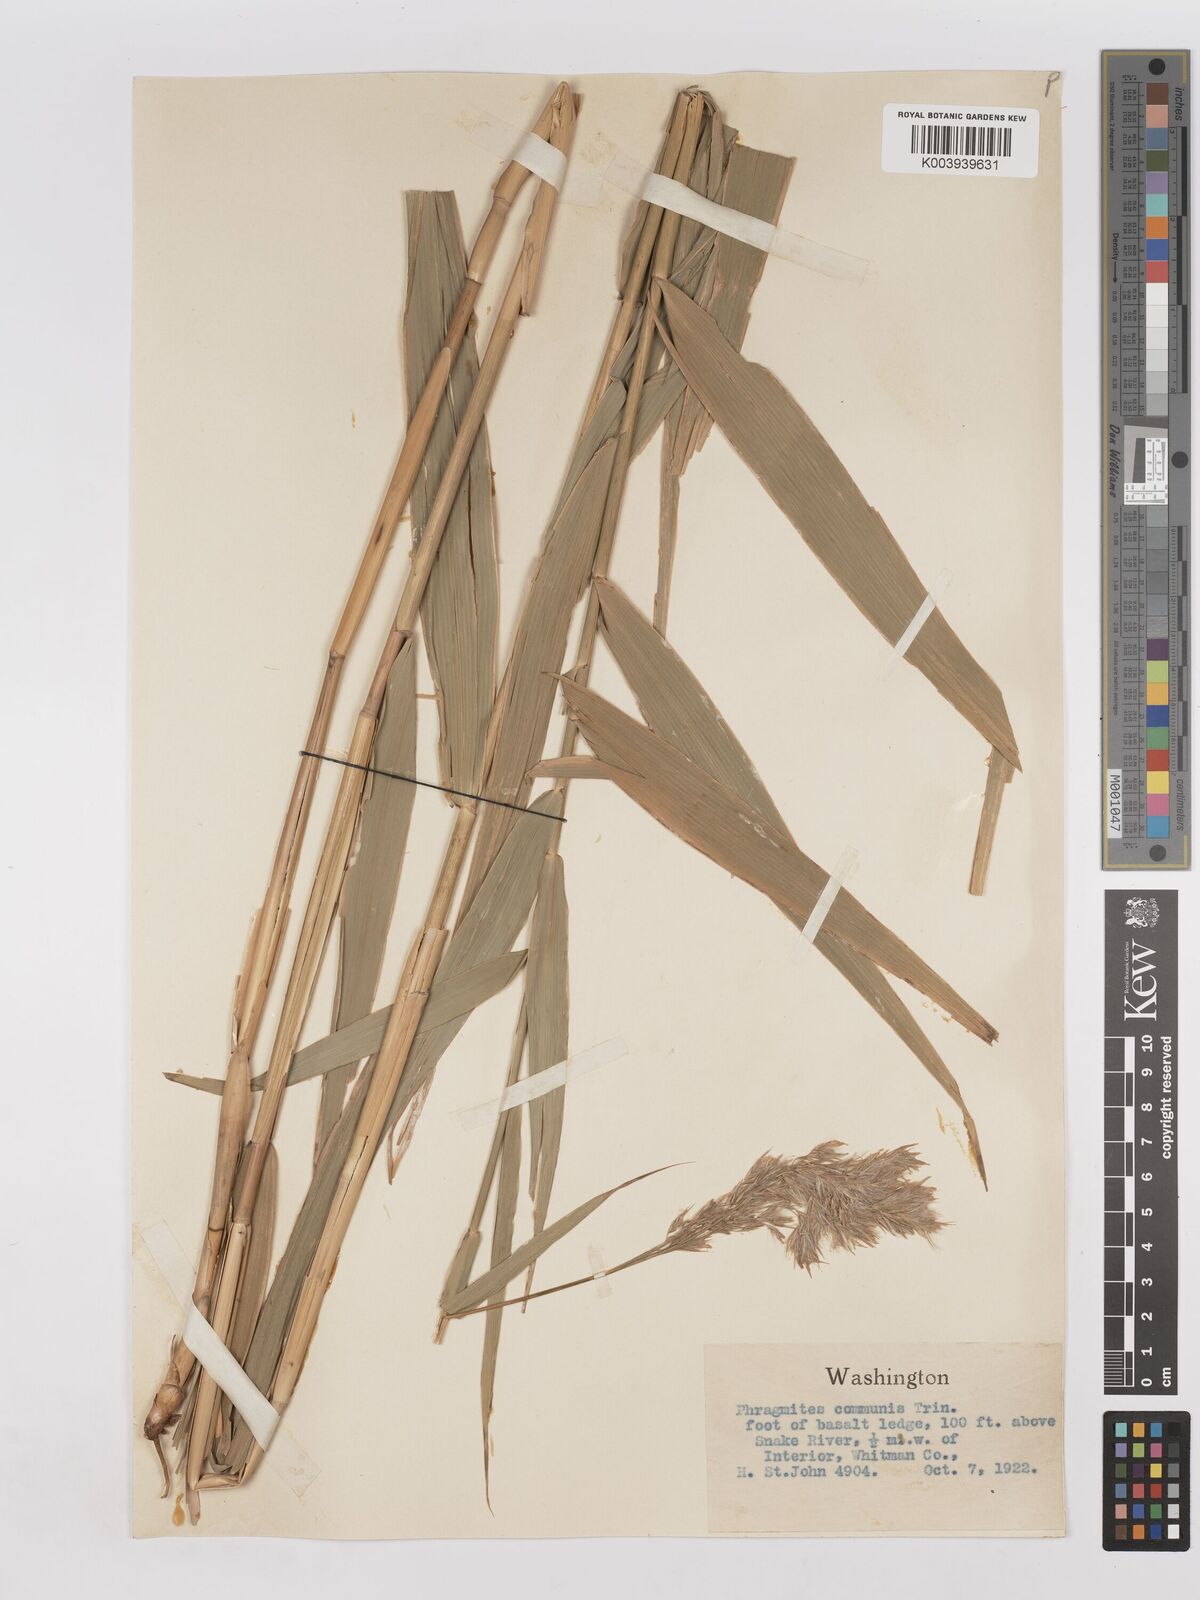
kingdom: Plantae
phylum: Tracheophyta
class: Liliopsida
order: Poales
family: Poaceae
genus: Phragmites
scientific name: Phragmites australis
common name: Common reed
